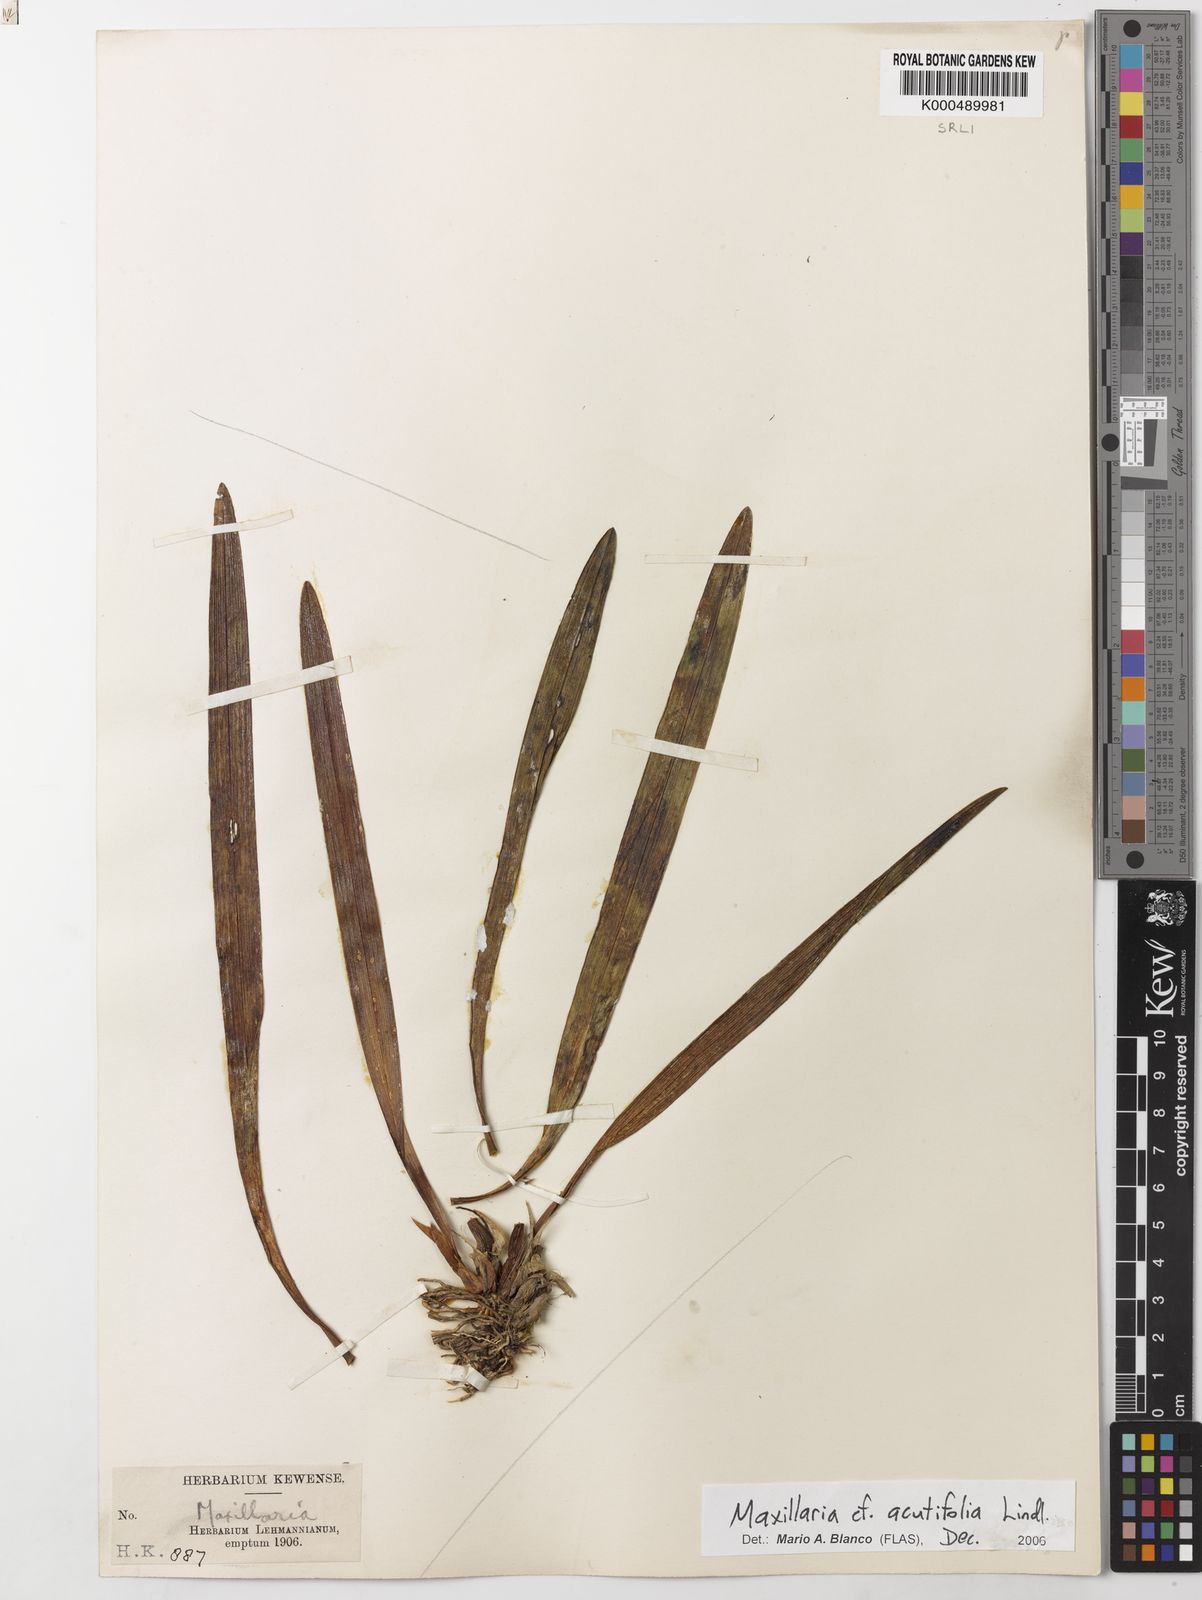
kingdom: Plantae
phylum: Tracheophyta
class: Liliopsida
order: Asparagales
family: Orchidaceae
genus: Maxillaria
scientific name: Maxillaria acutifolia
